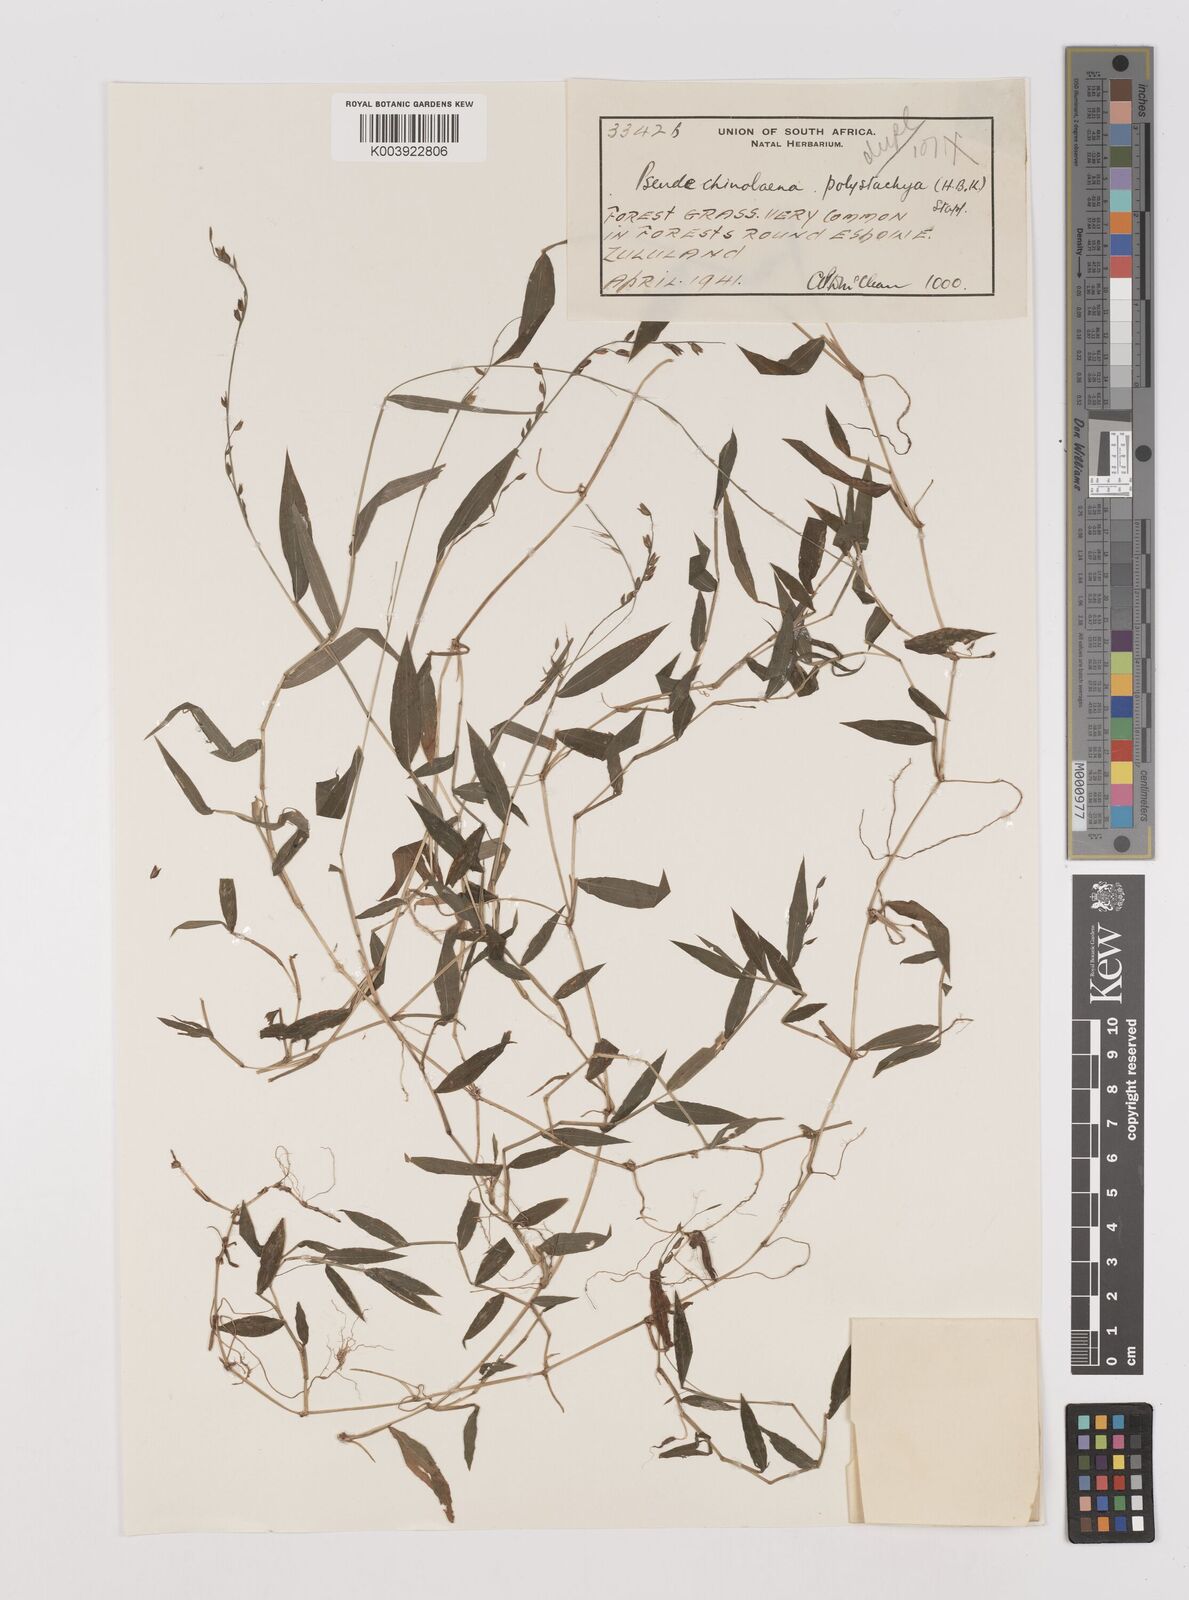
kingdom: Plantae
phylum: Tracheophyta
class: Liliopsida
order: Poales
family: Poaceae
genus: Pseudechinolaena
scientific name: Pseudechinolaena polystachya
